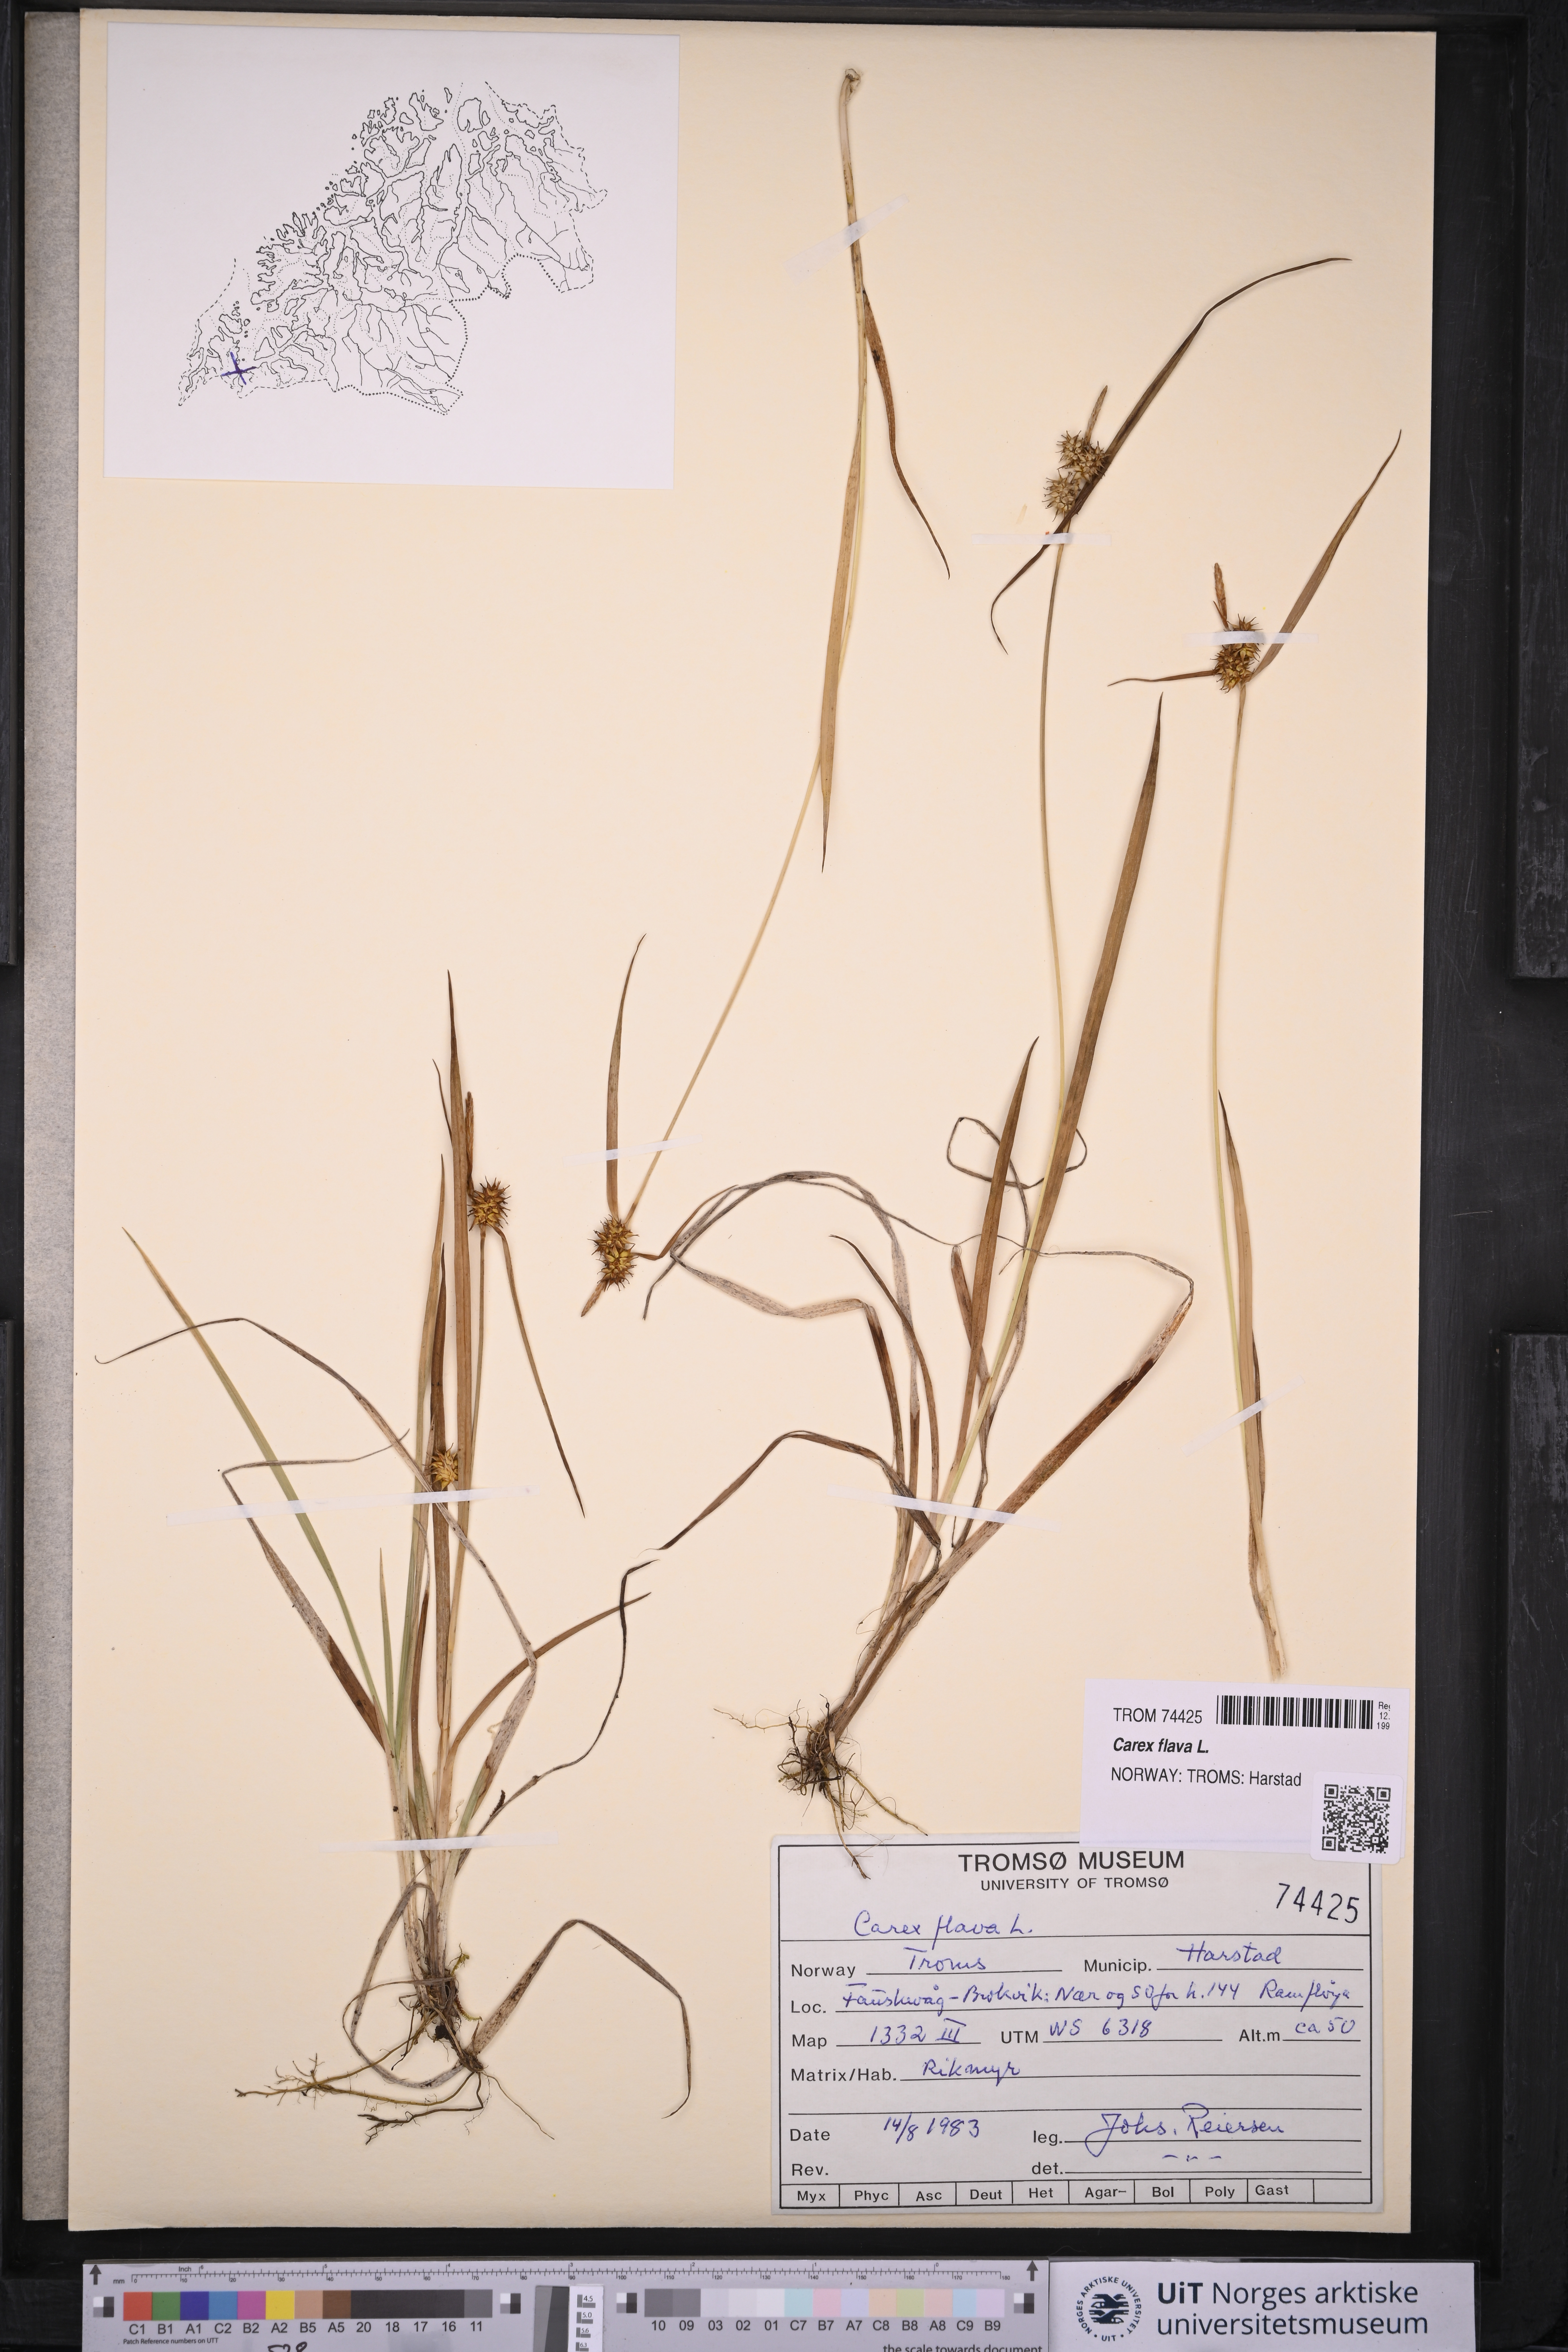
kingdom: Plantae
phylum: Tracheophyta
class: Liliopsida
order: Poales
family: Cyperaceae
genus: Carex
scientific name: Carex flava
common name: Large yellow-sedge
